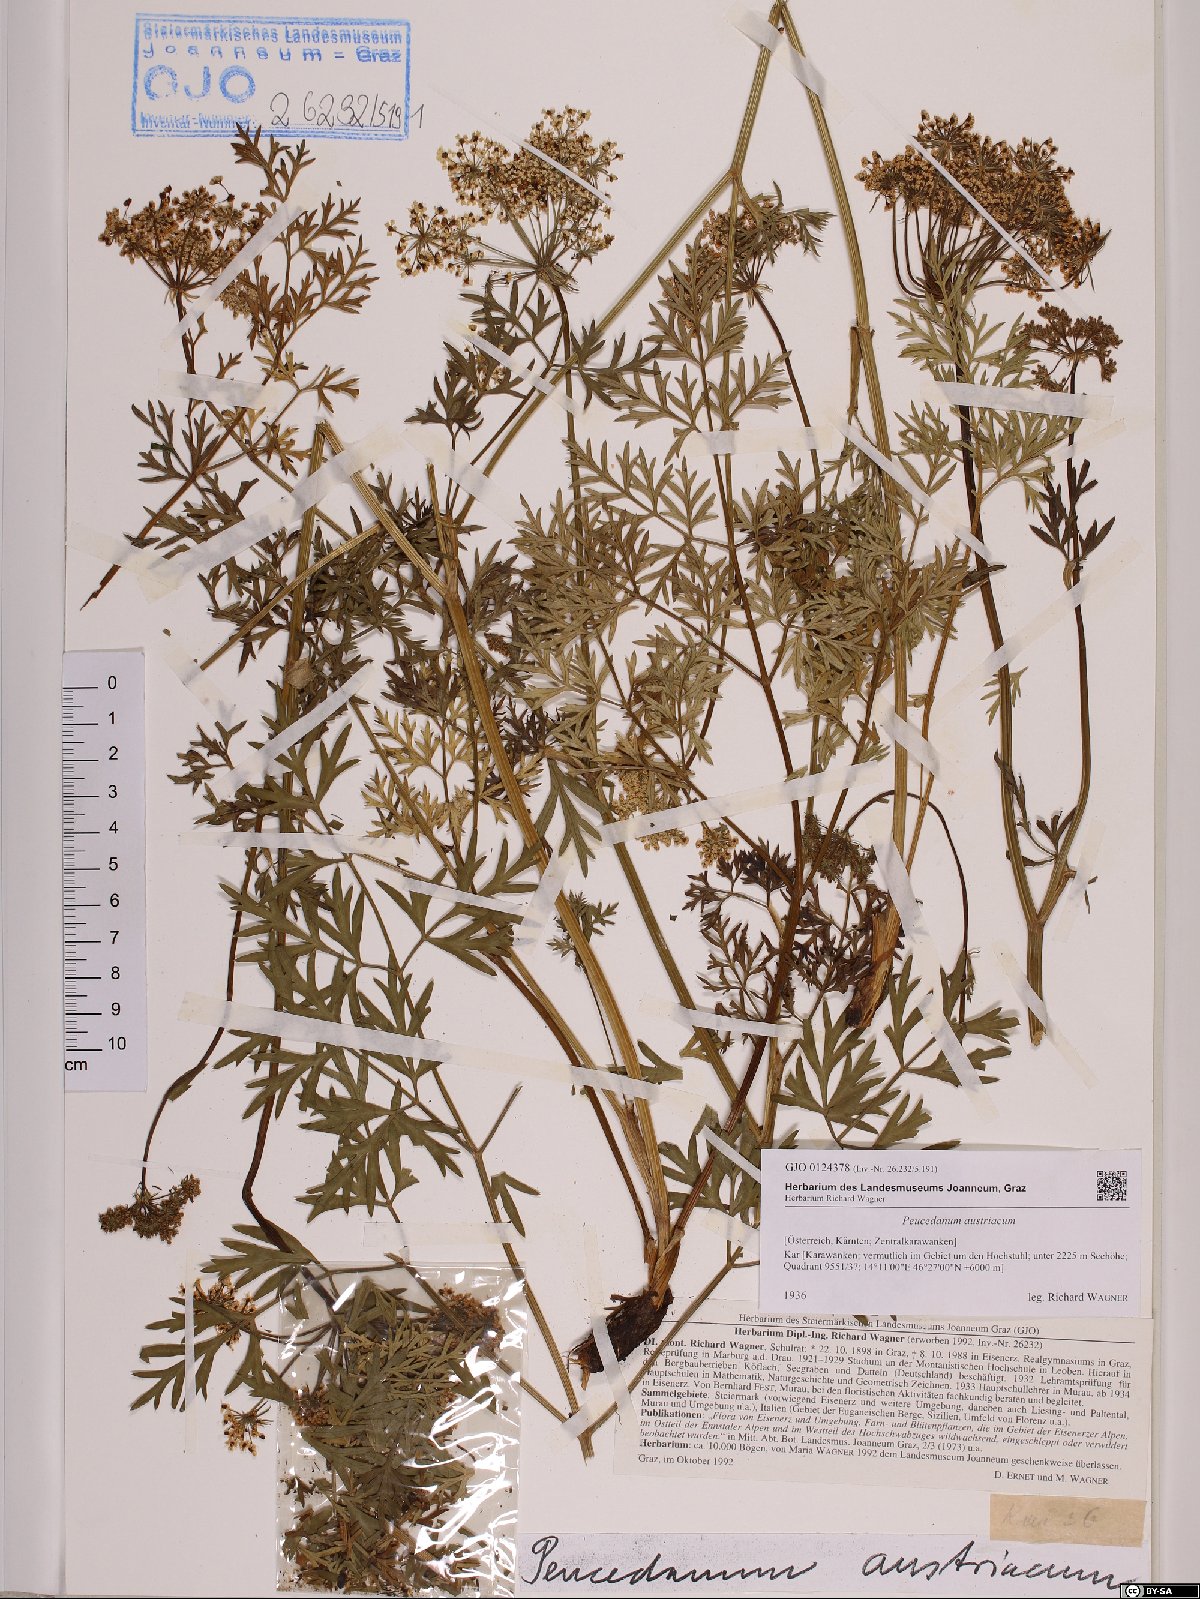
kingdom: Plantae
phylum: Tracheophyta
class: Magnoliopsida
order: Apiales
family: Apiaceae
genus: Peucedanum
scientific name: Peucedanum austriacum
